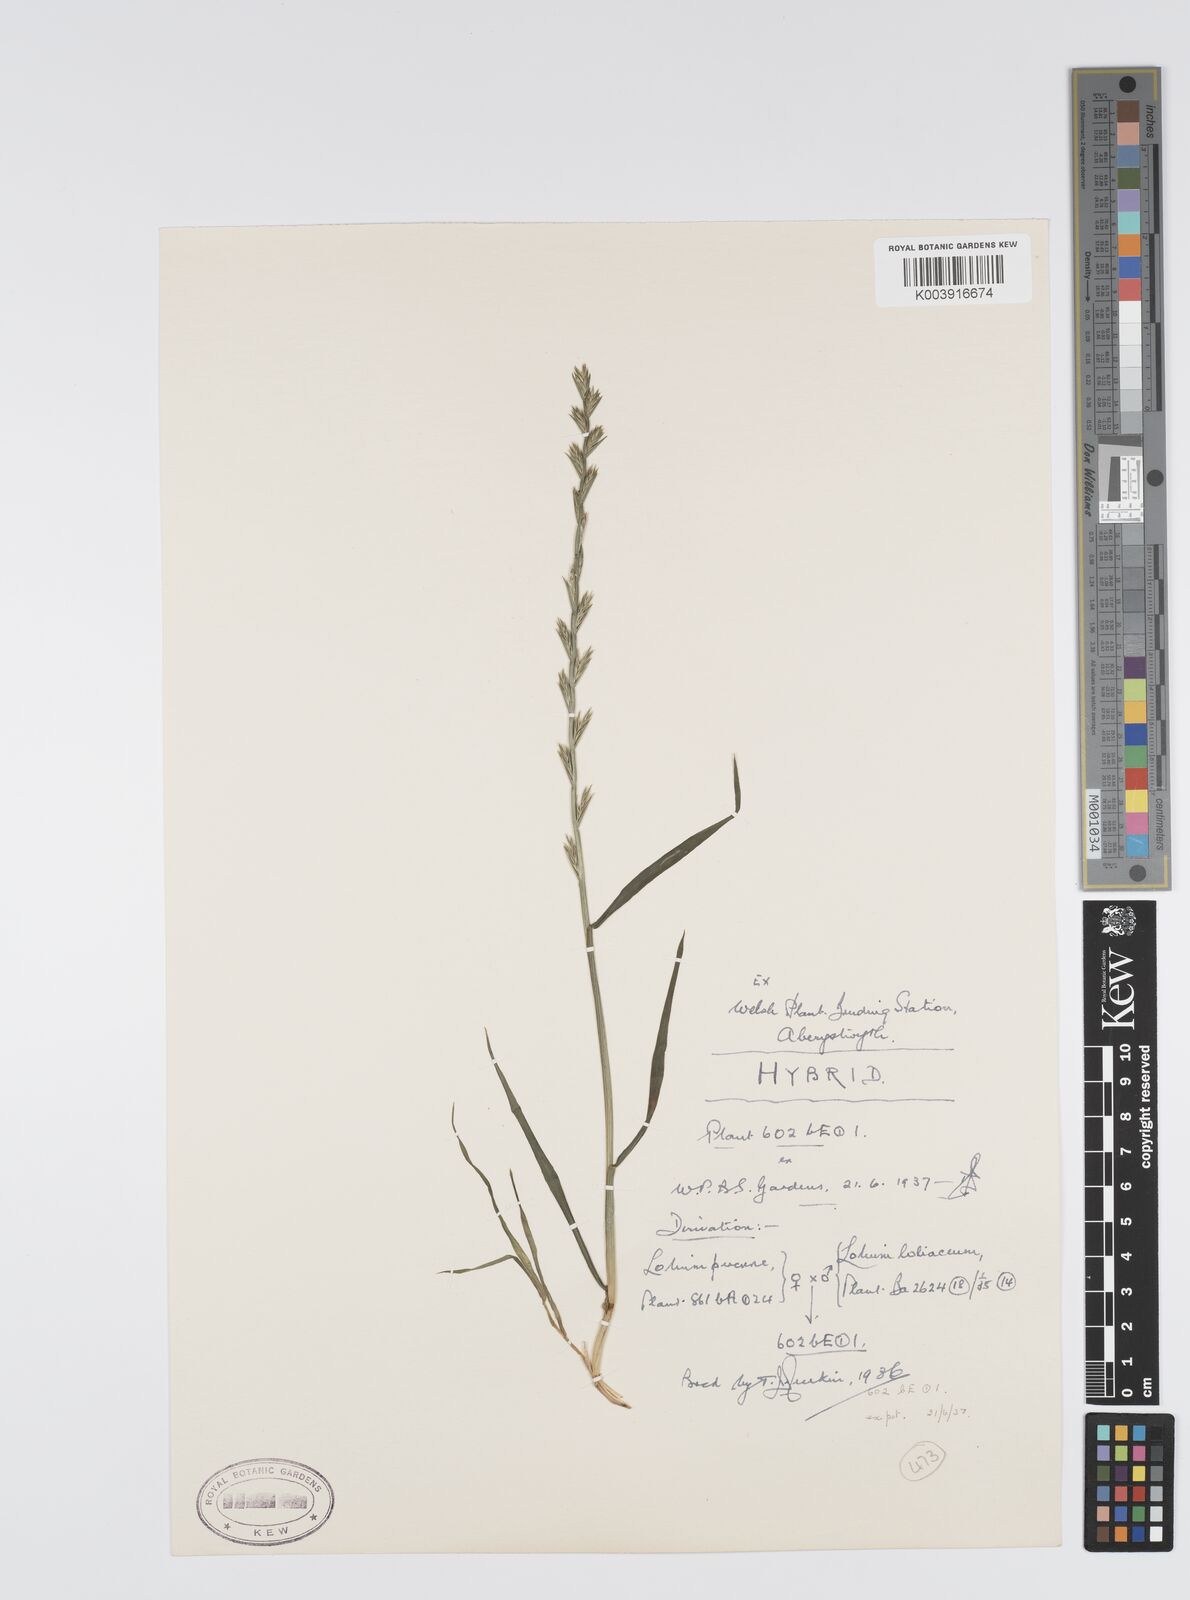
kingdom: Plantae
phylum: Tracheophyta
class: Liliopsida
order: Poales
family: Poaceae
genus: Lolium
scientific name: Lolium perenne
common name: Perennial ryegrass
